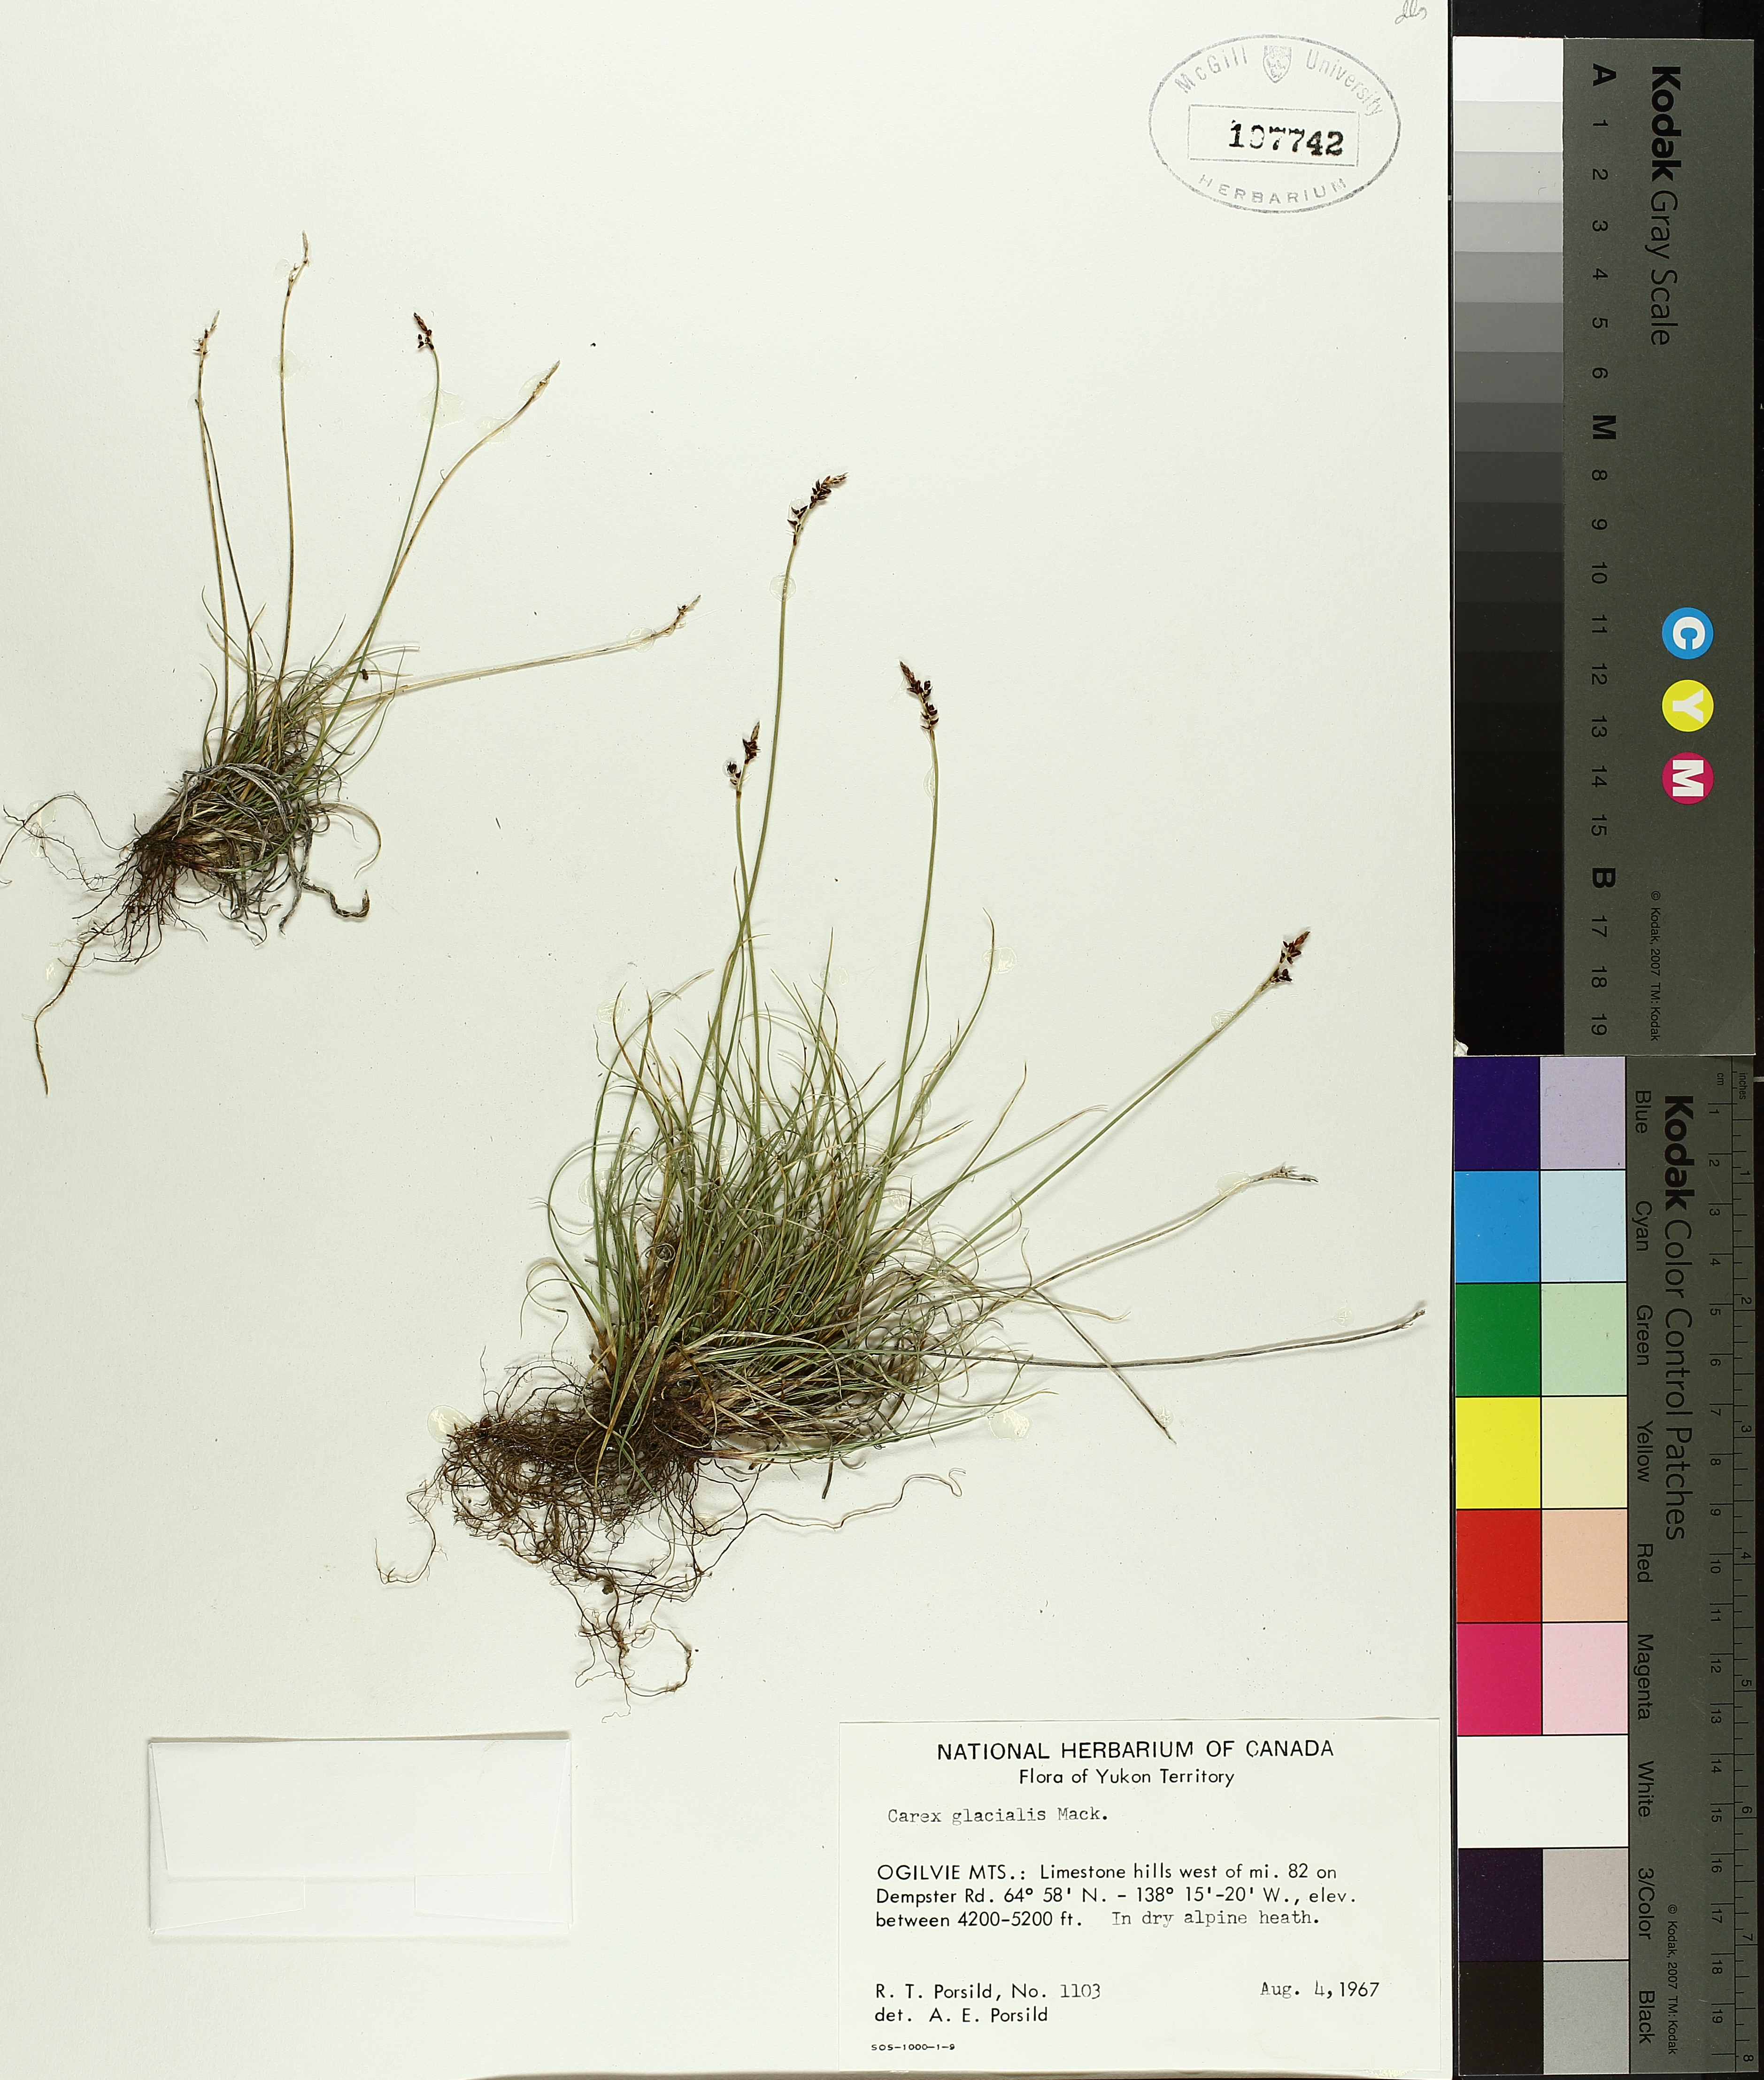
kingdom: Plantae
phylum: Tracheophyta
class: Liliopsida
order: Poales
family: Cyperaceae
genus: Carex
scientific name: Carex glacialis
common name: Newfoundland sedge
